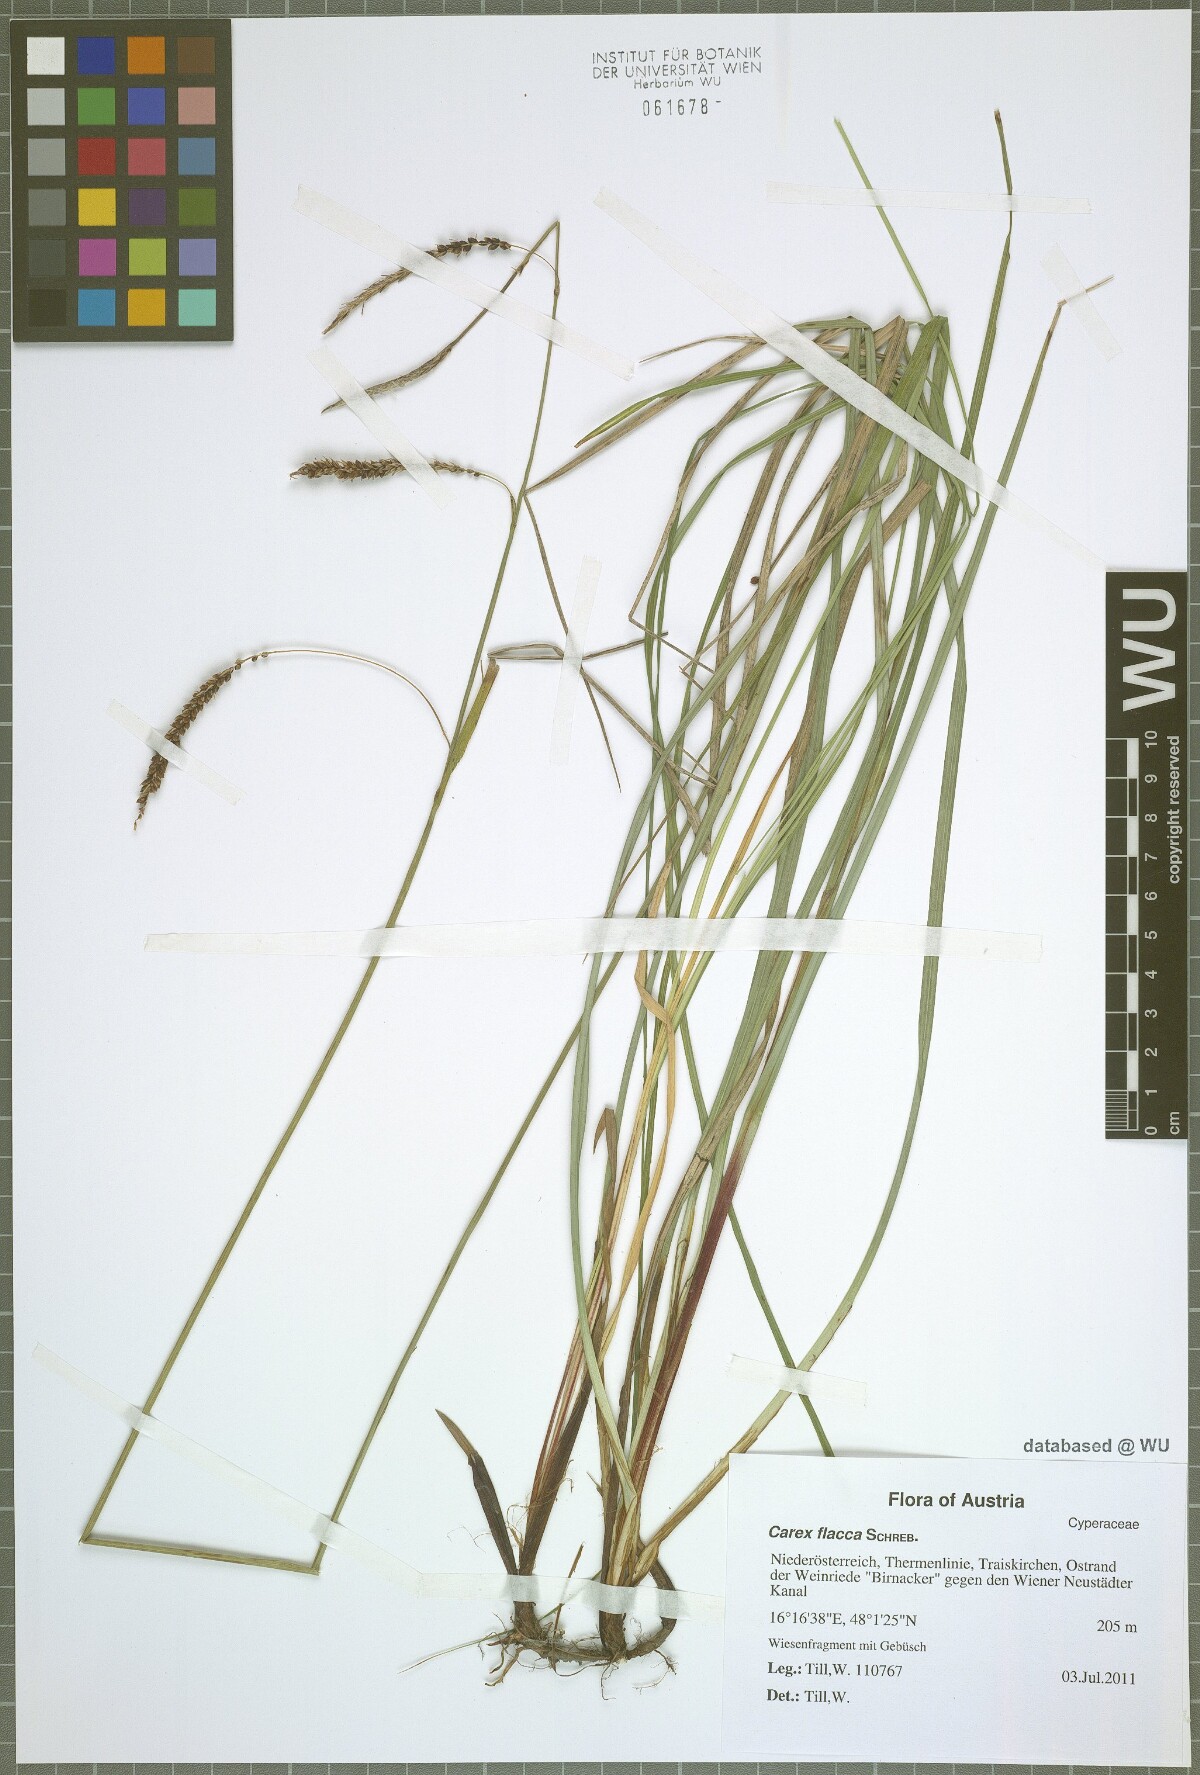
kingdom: Plantae
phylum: Tracheophyta
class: Liliopsida
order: Poales
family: Cyperaceae
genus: Carex
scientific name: Carex flacca
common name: Glaucous sedge
